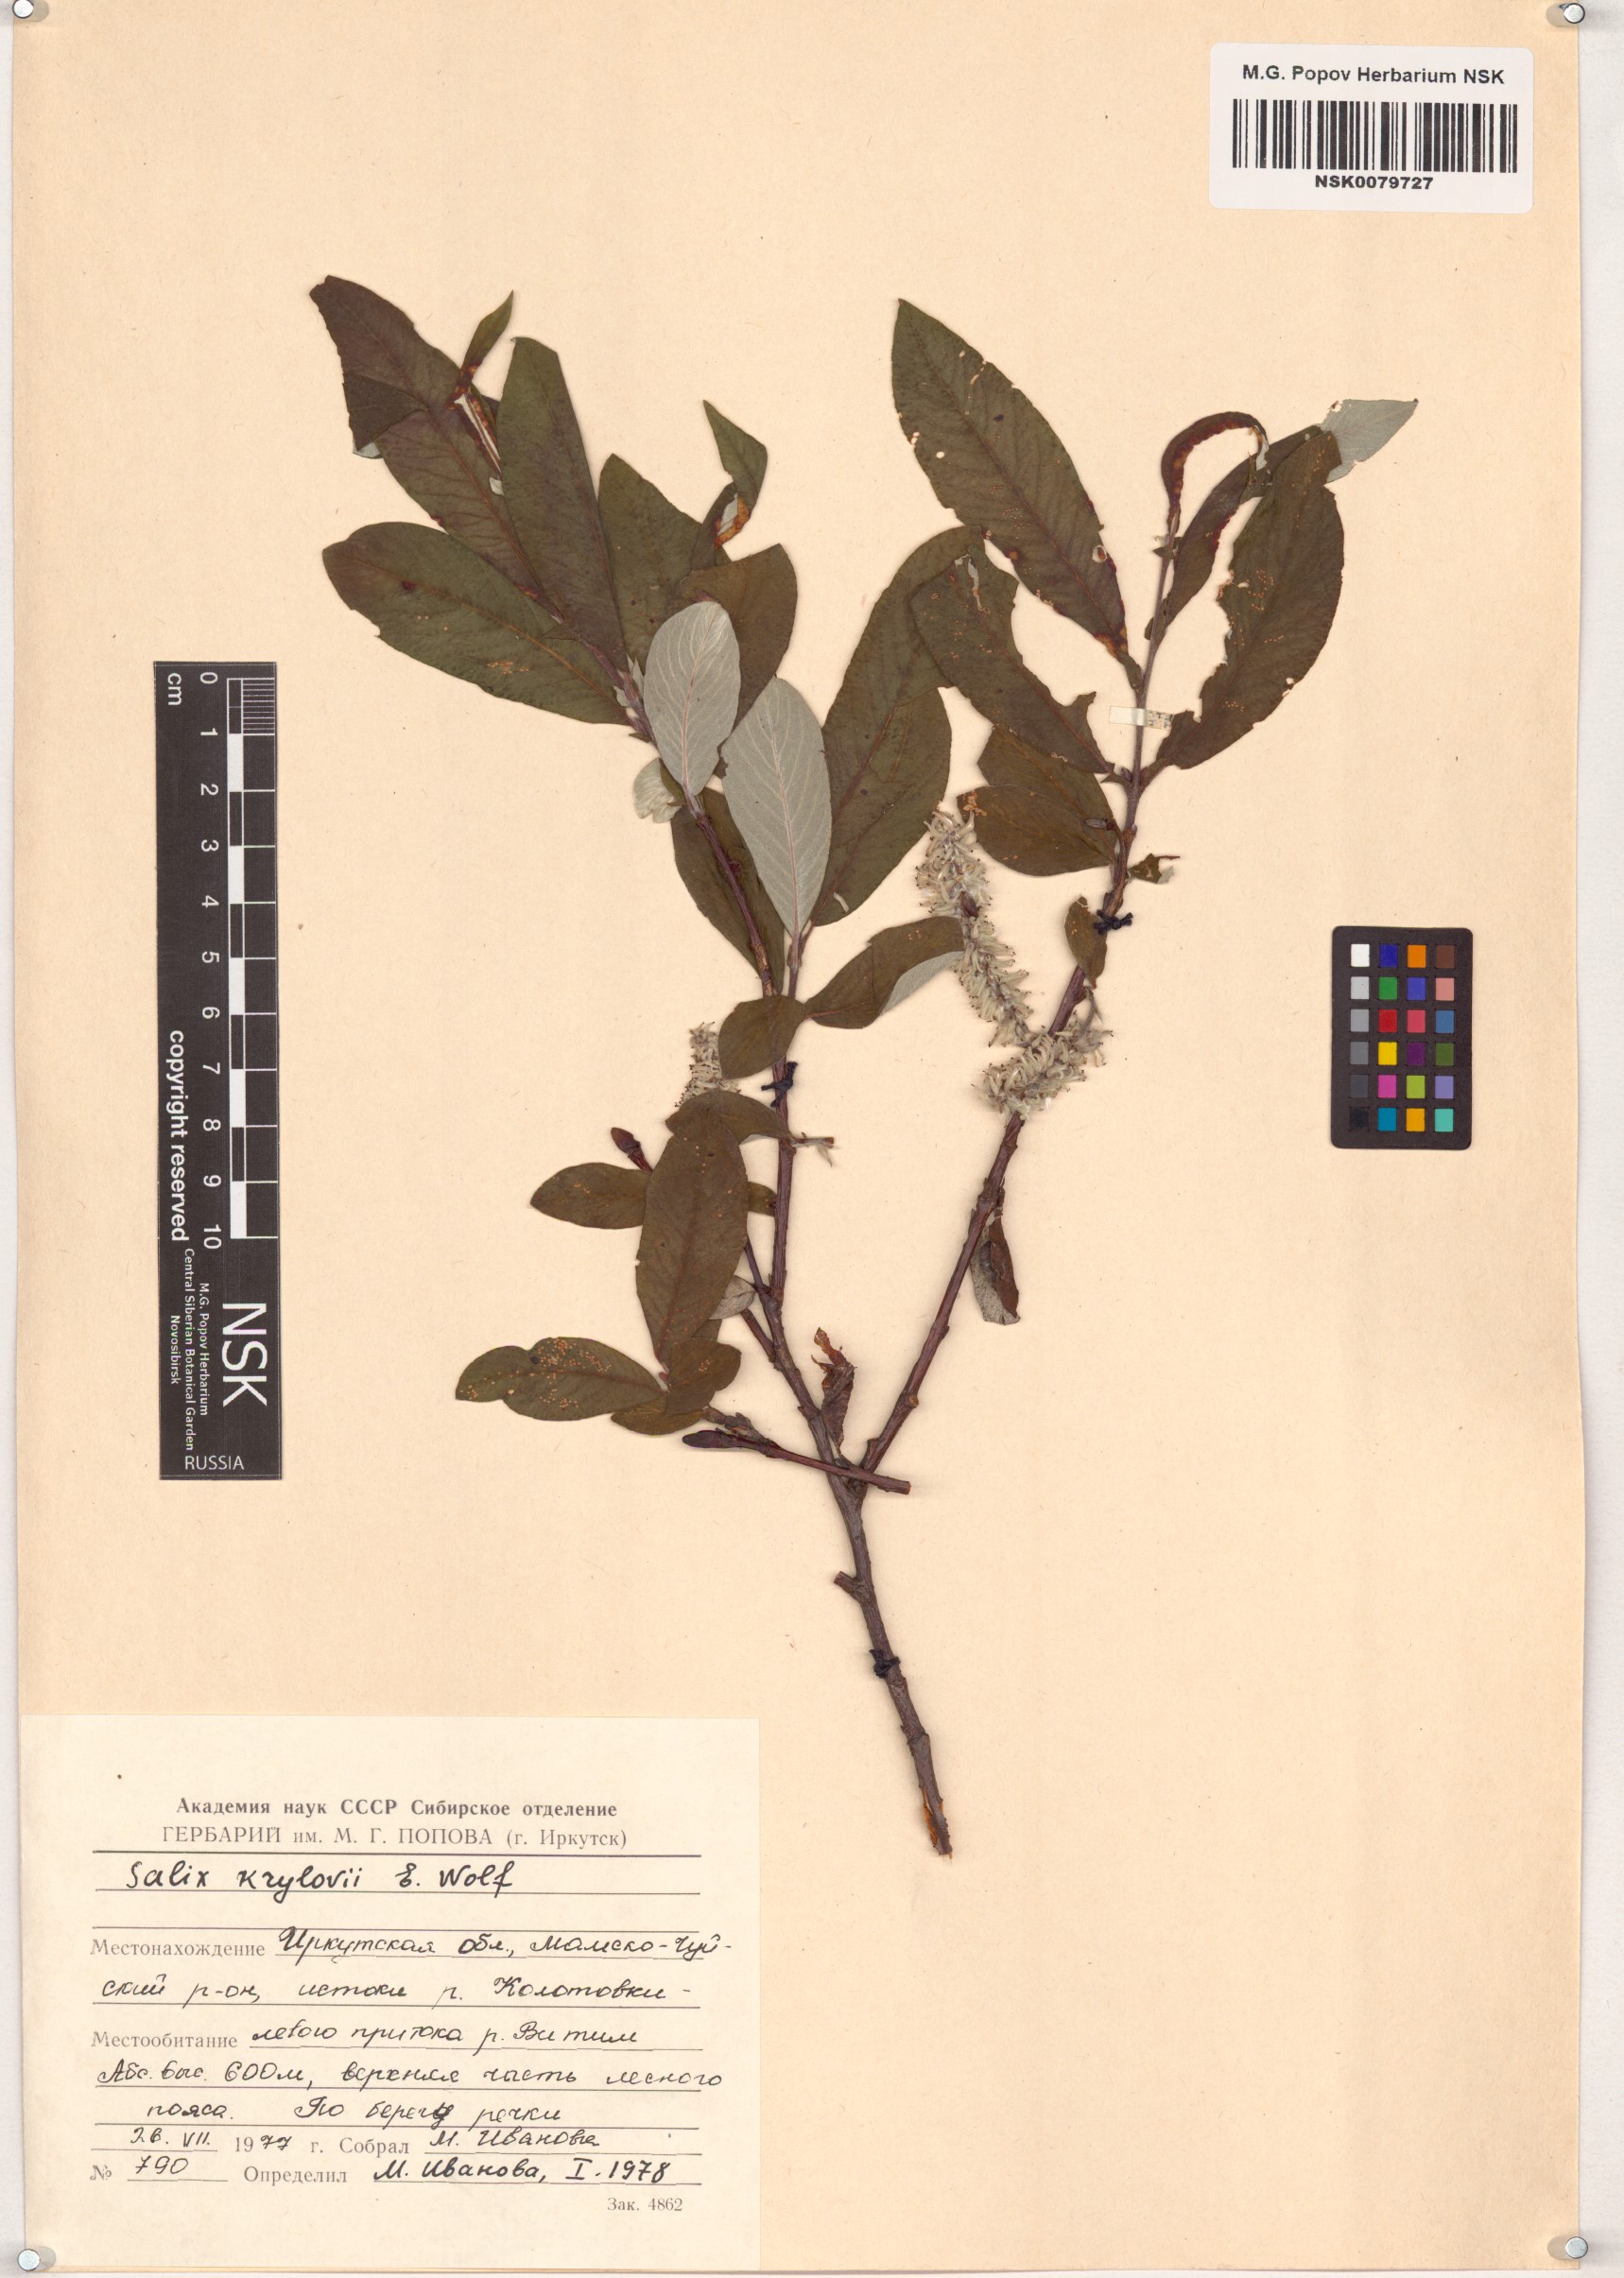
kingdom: Plantae
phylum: Tracheophyta
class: Magnoliopsida
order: Malpighiales
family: Salicaceae
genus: Salix
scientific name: Salix krylovii
